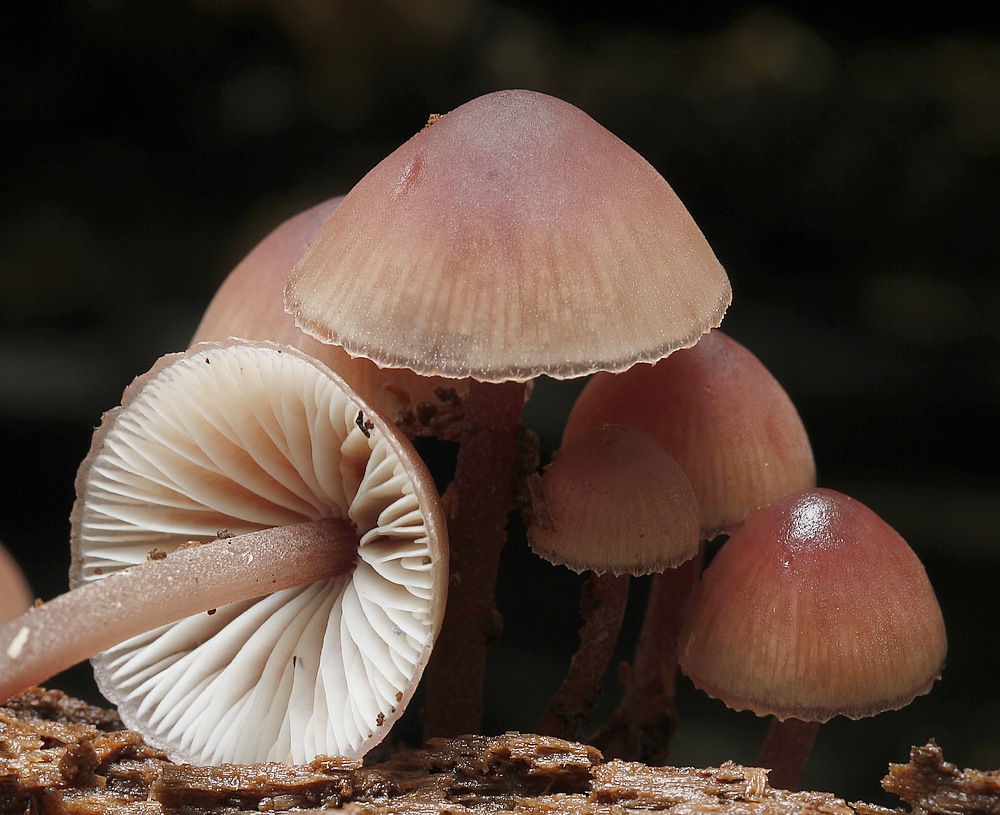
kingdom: Fungi
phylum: Basidiomycota
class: Agaricomycetes
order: Agaricales
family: Mycenaceae
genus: Mycena
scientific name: Mycena haematopus
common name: blødende huesvamp
